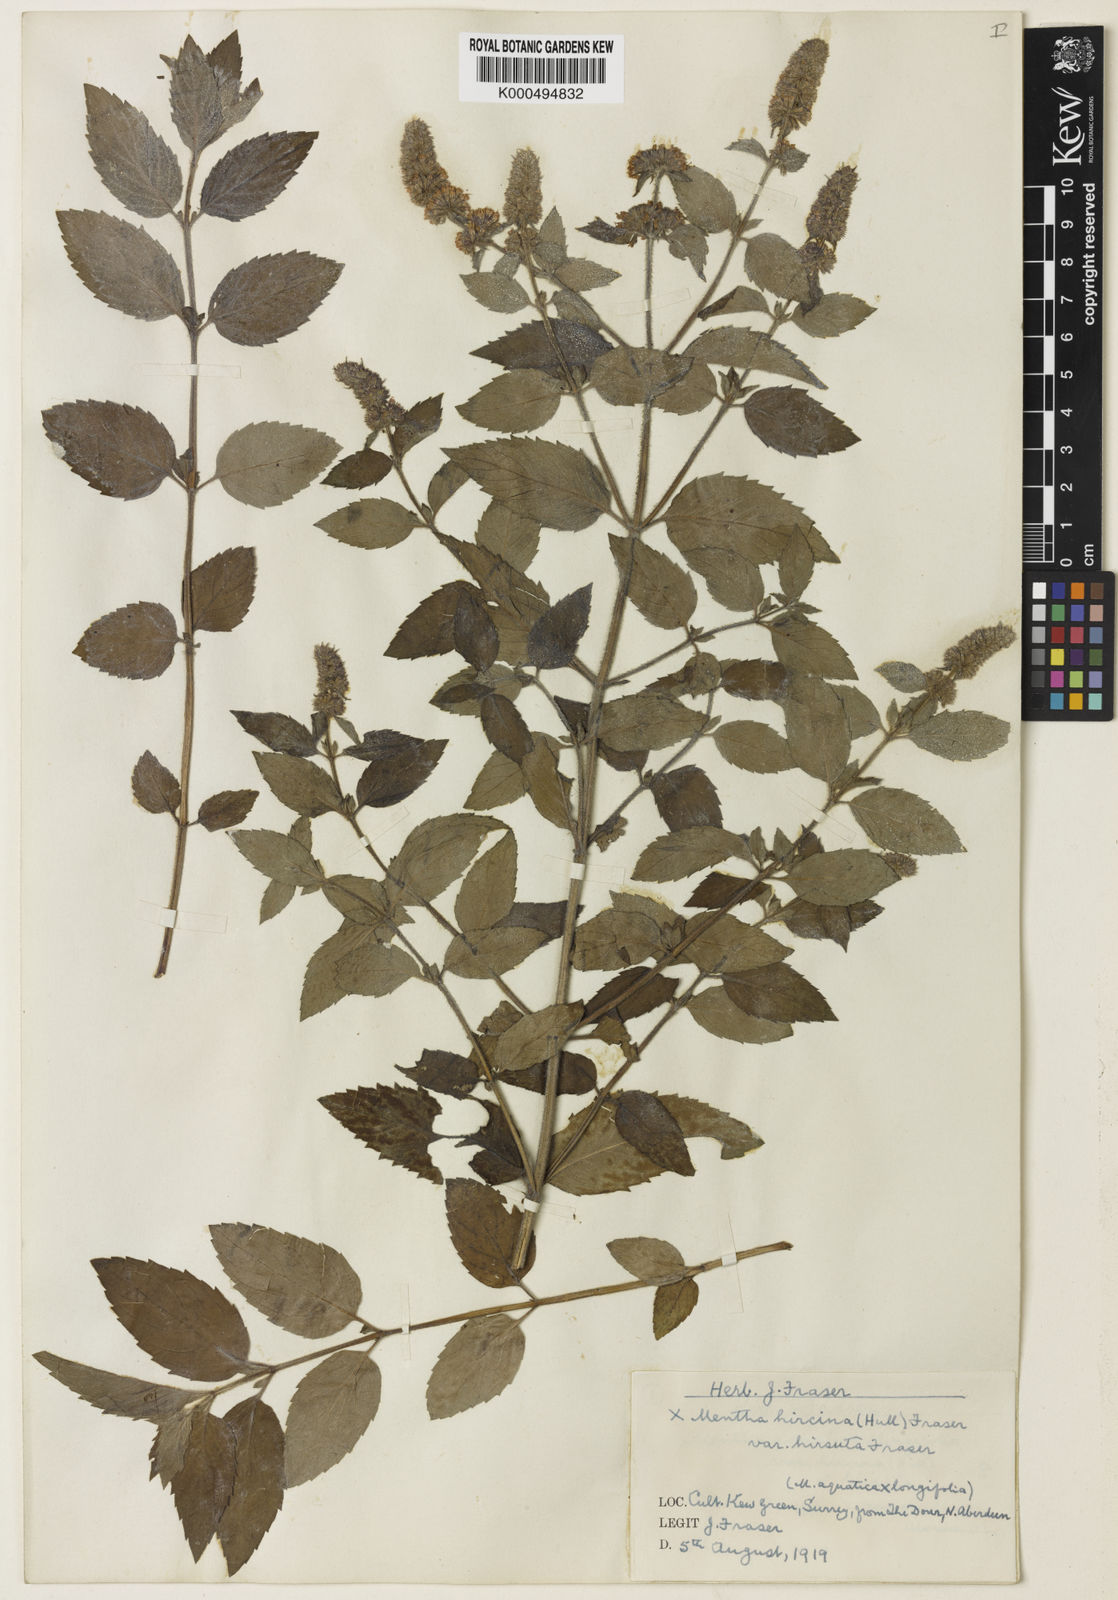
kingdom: Plantae
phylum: Tracheophyta
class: Magnoliopsida
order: Lamiales
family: Lamiaceae
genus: Mentha
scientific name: Mentha piperita
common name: Peppermint
